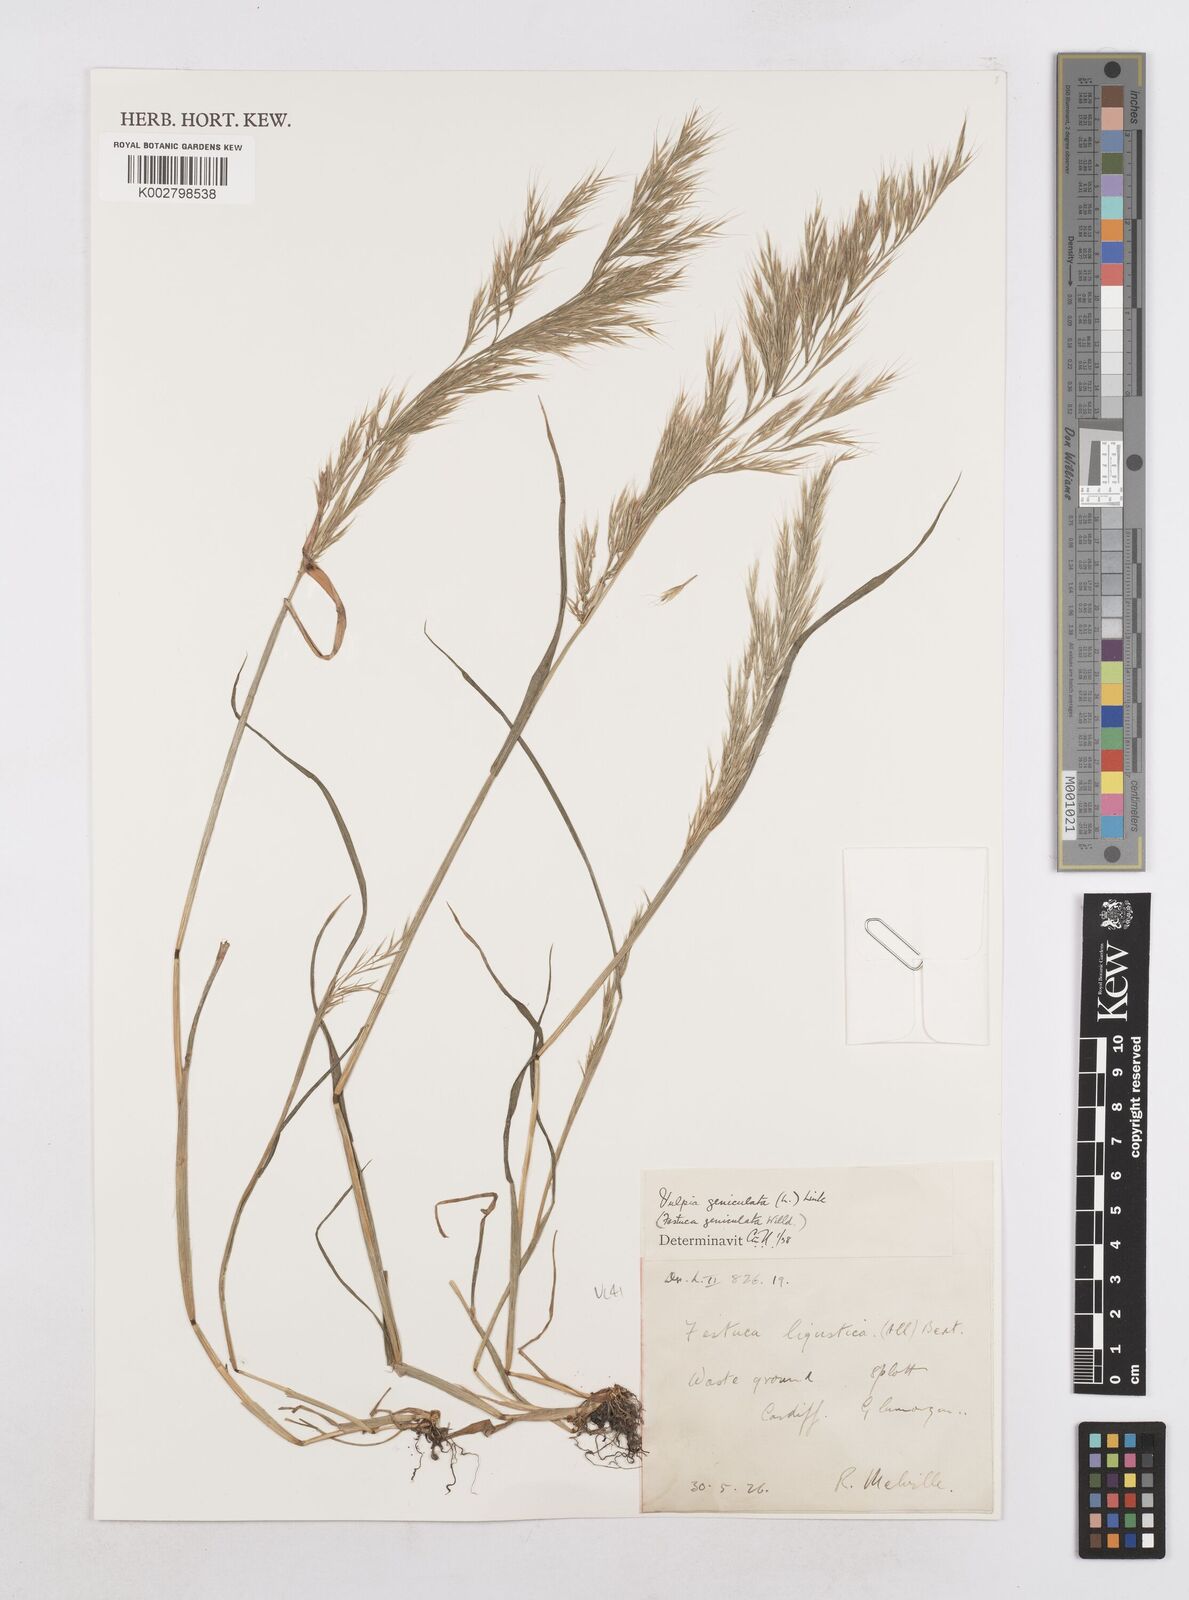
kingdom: Plantae
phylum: Tracheophyta
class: Liliopsida
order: Poales
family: Poaceae
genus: Festuca
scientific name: Festuca geniculata
